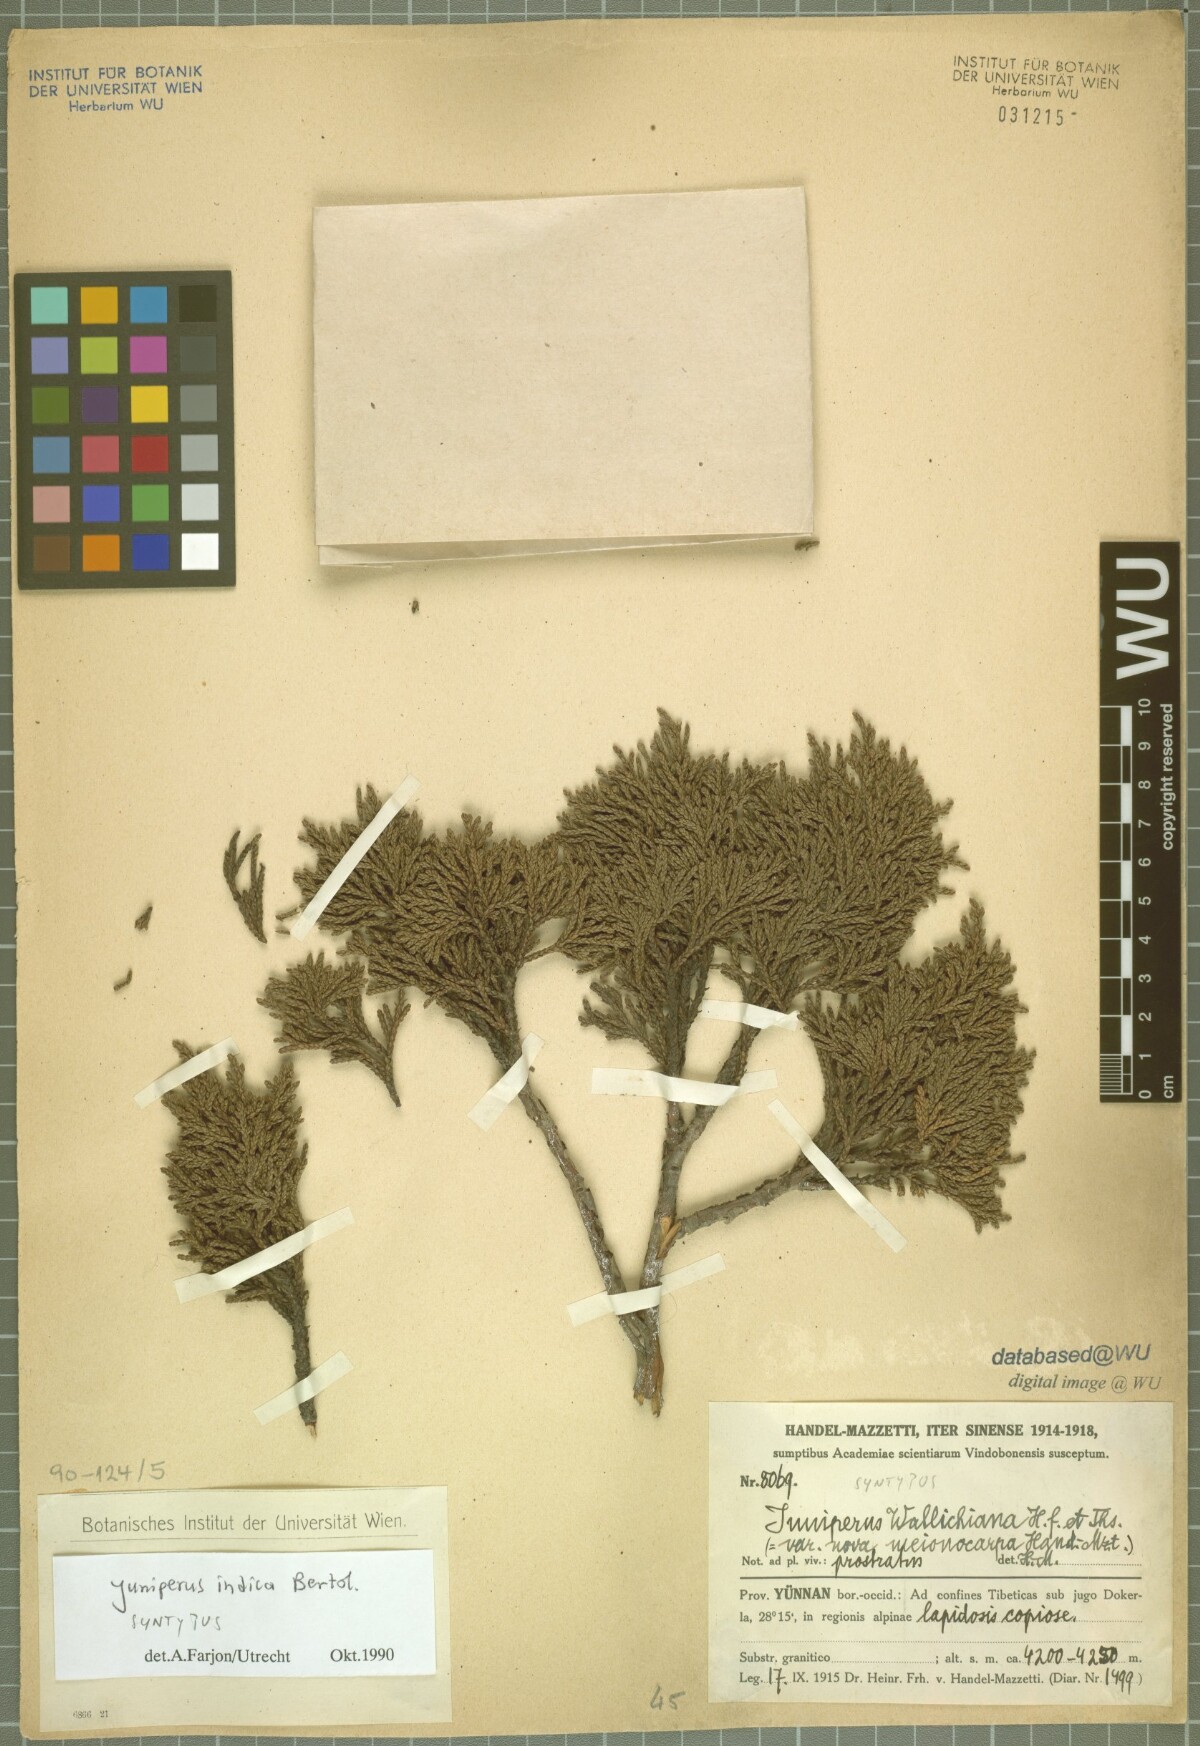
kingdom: Plantae
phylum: Tracheophyta
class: Pinopsida
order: Pinales
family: Cupressaceae
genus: Juniperus
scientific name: Juniperus indica
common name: Black juniper
